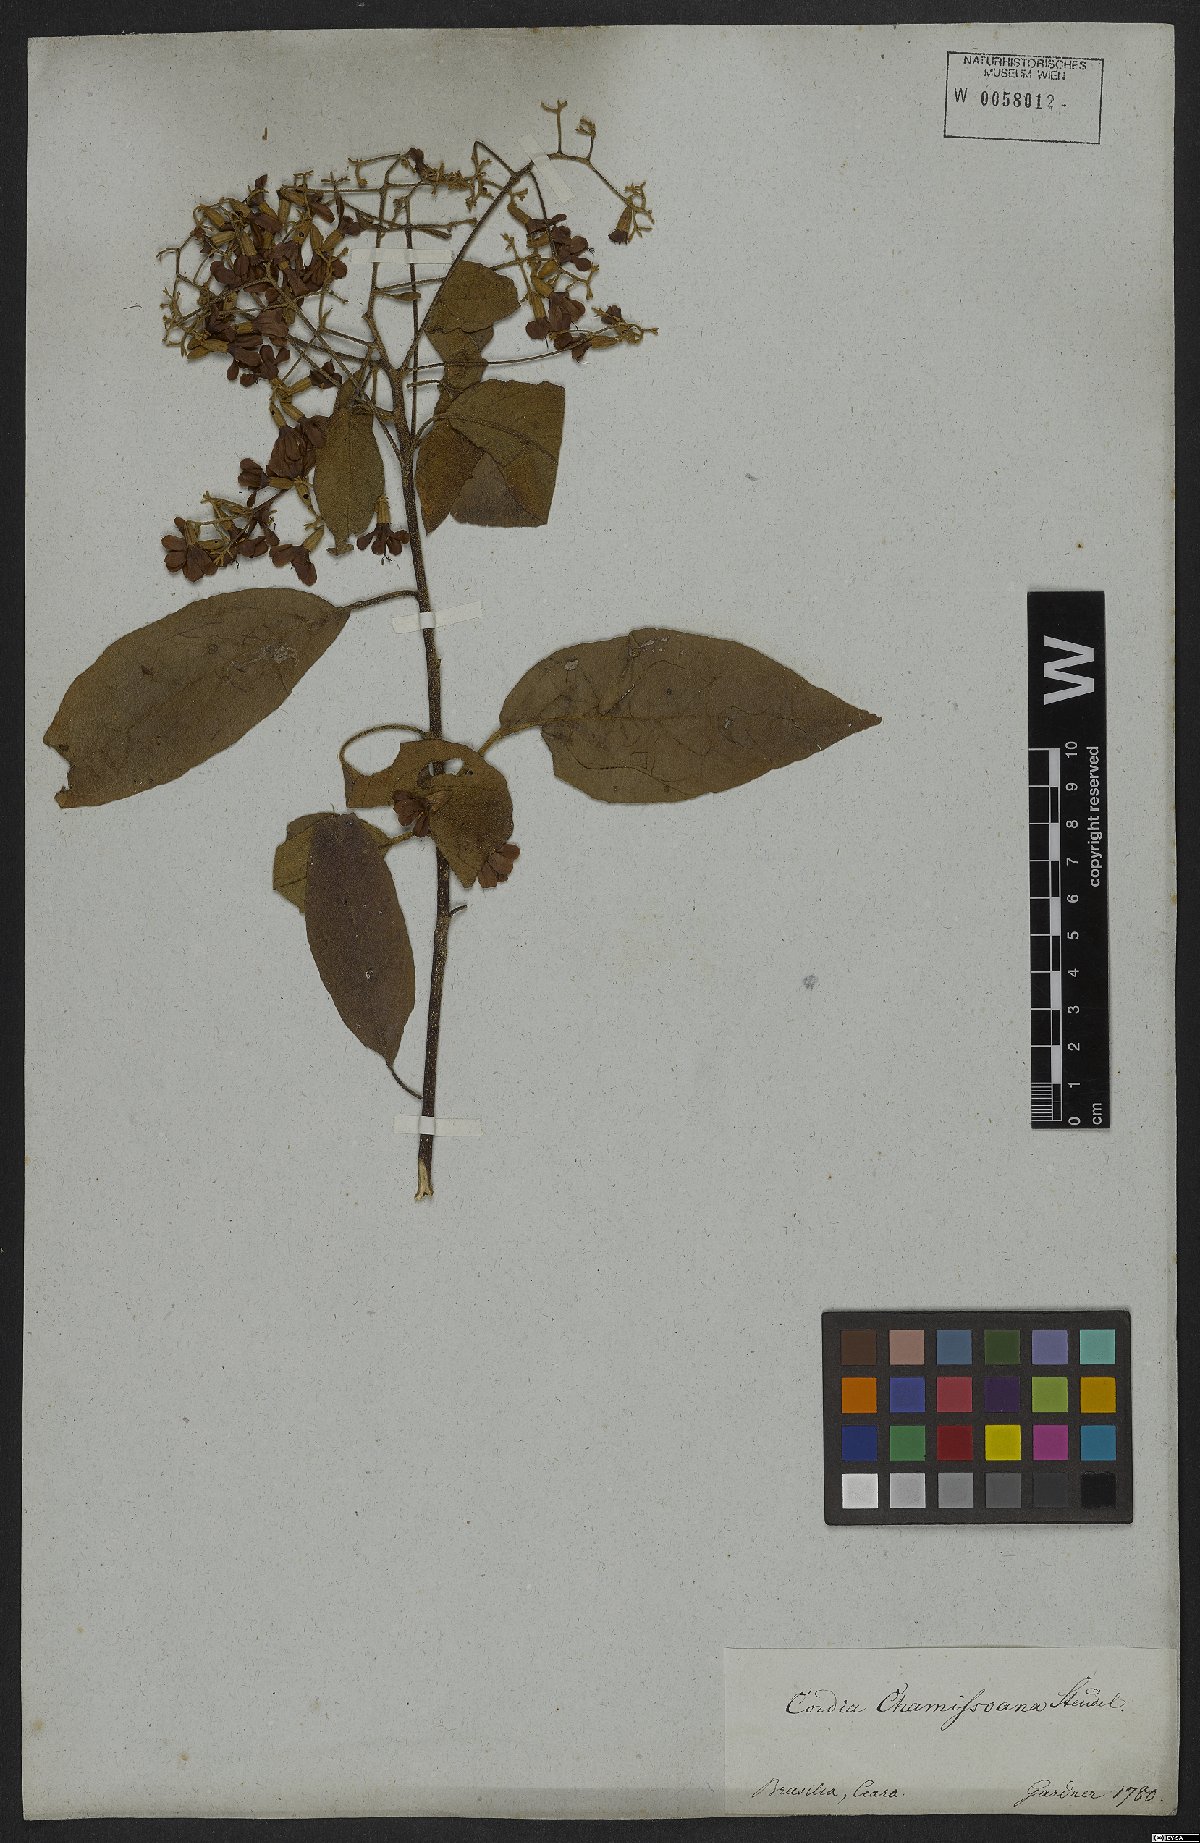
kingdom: Plantae
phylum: Tracheophyta
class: Magnoliopsida
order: Boraginales
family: Cordiaceae
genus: Cordia
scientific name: Cordia chamissoniana
